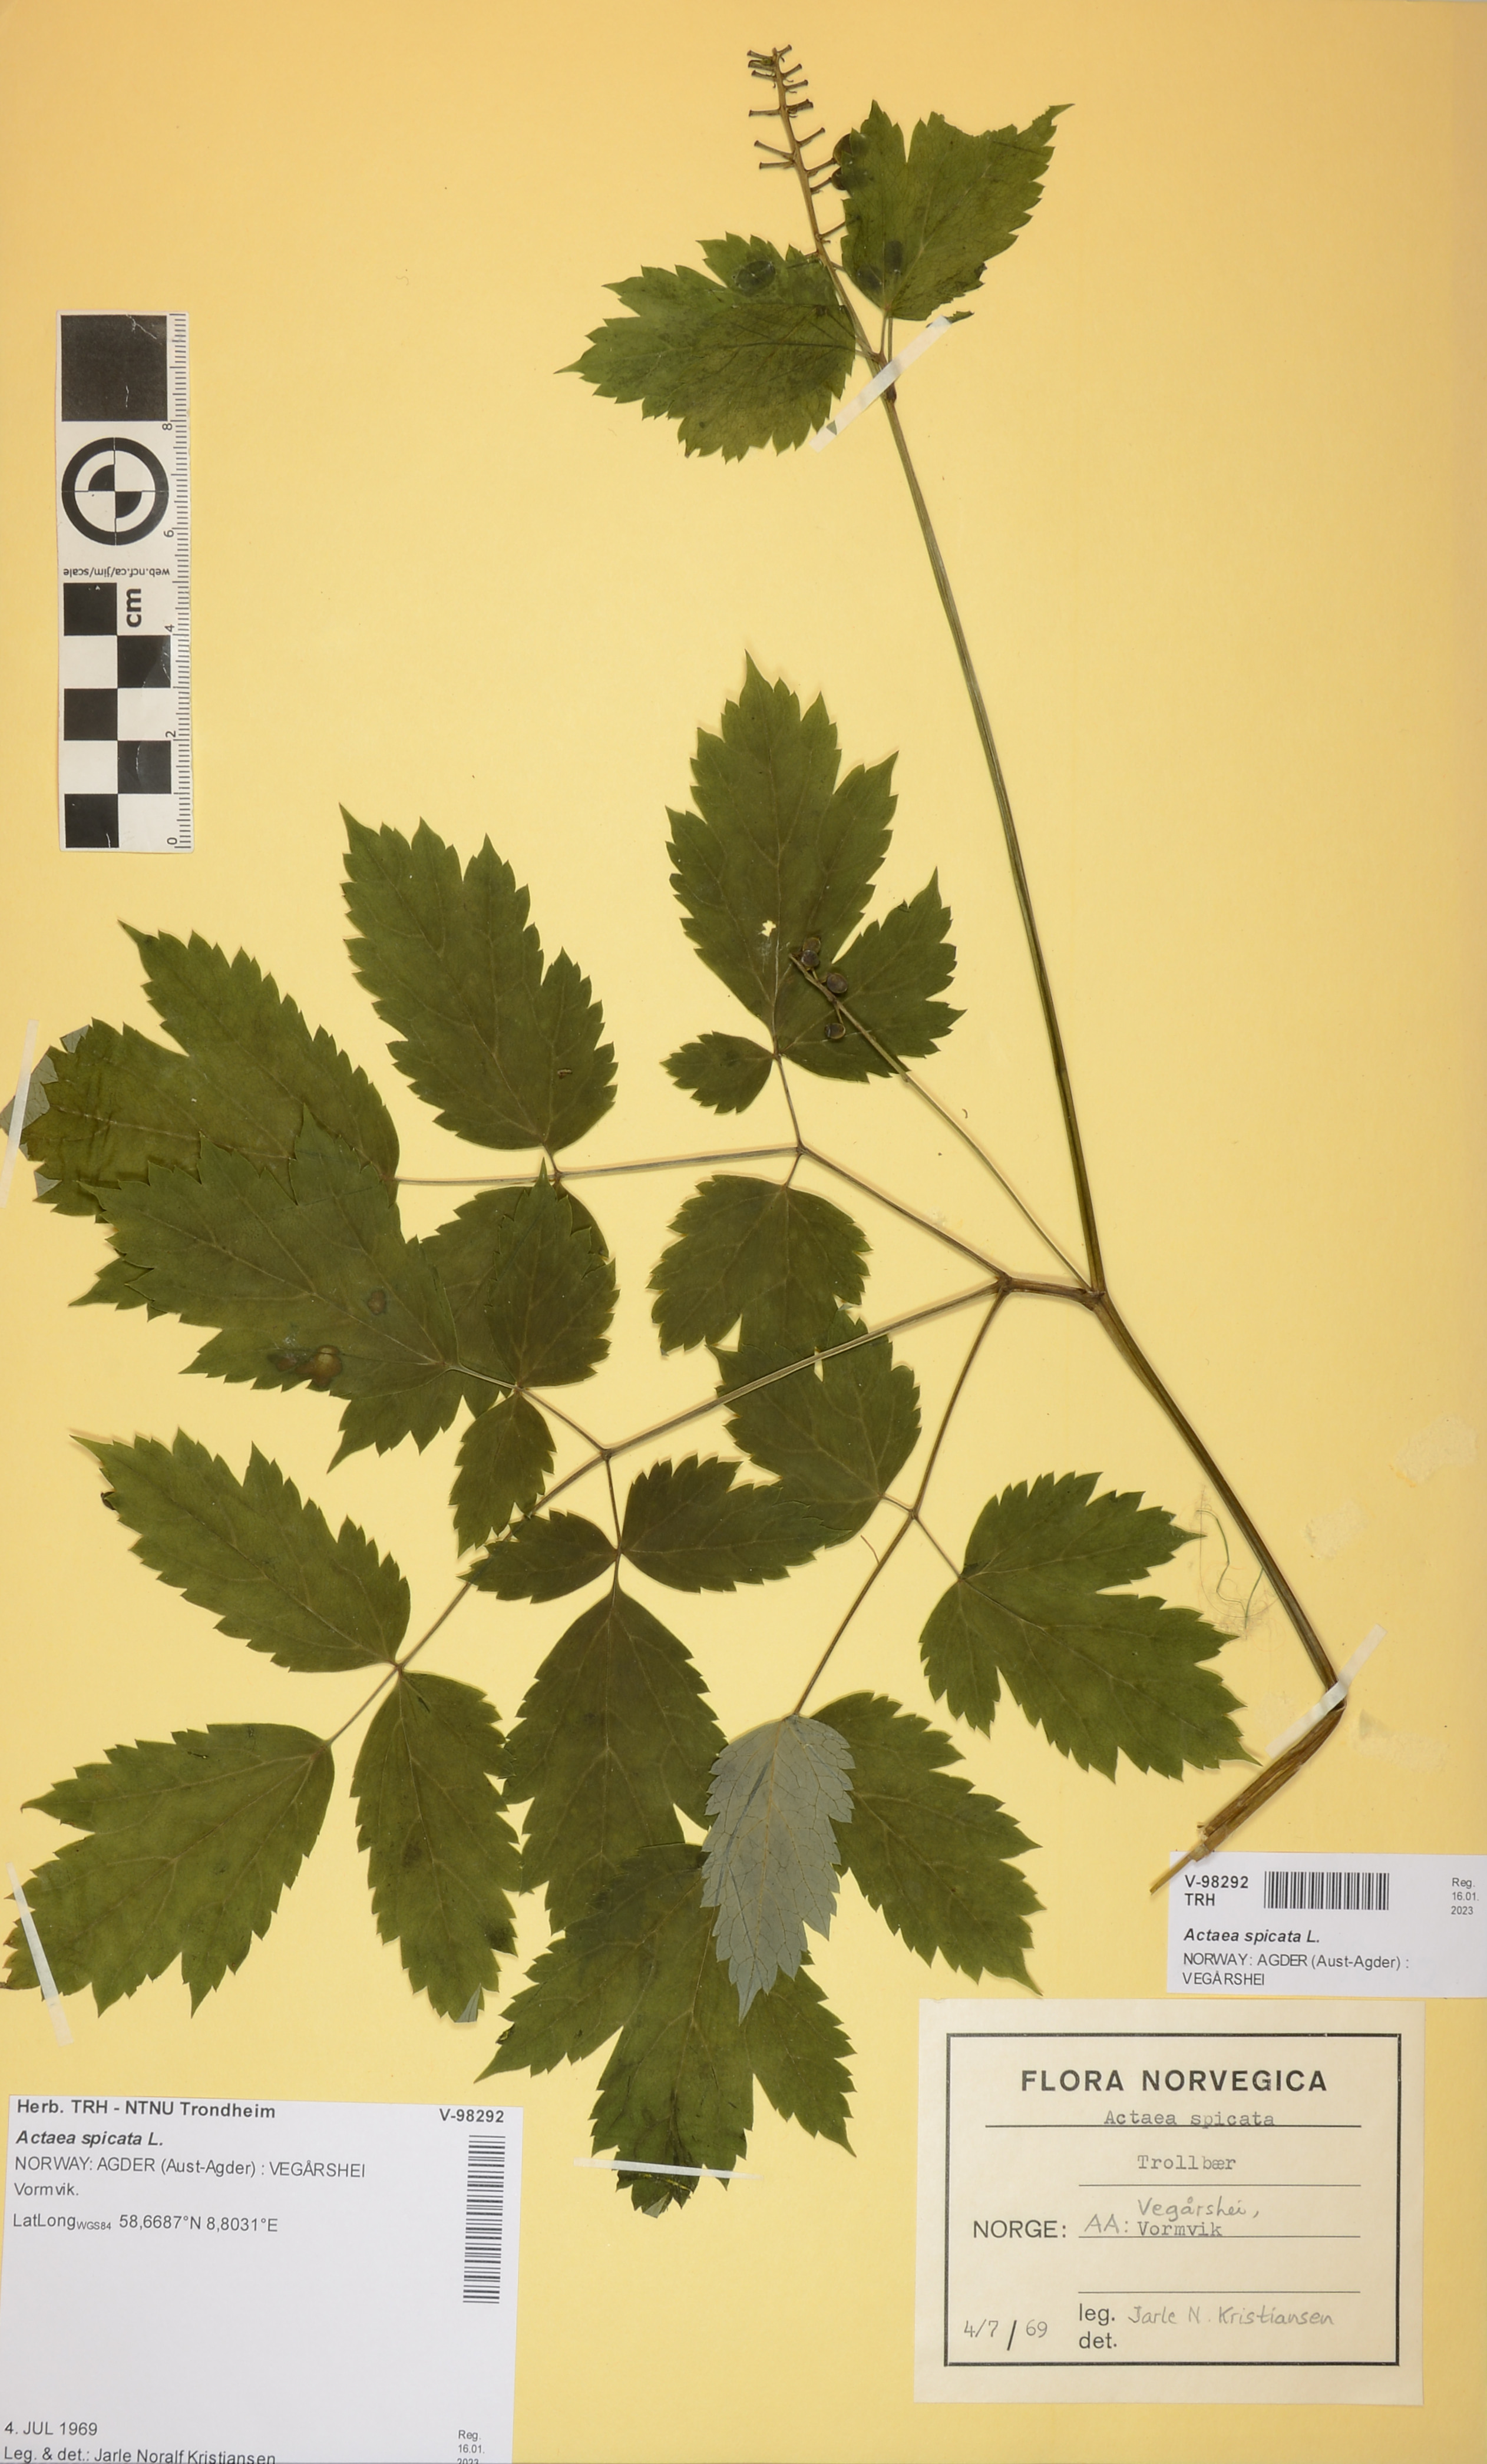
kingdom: Plantae
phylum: Tracheophyta
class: Magnoliopsida
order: Ranunculales
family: Ranunculaceae
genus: Actaea
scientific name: Actaea spicata
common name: Baneberry
